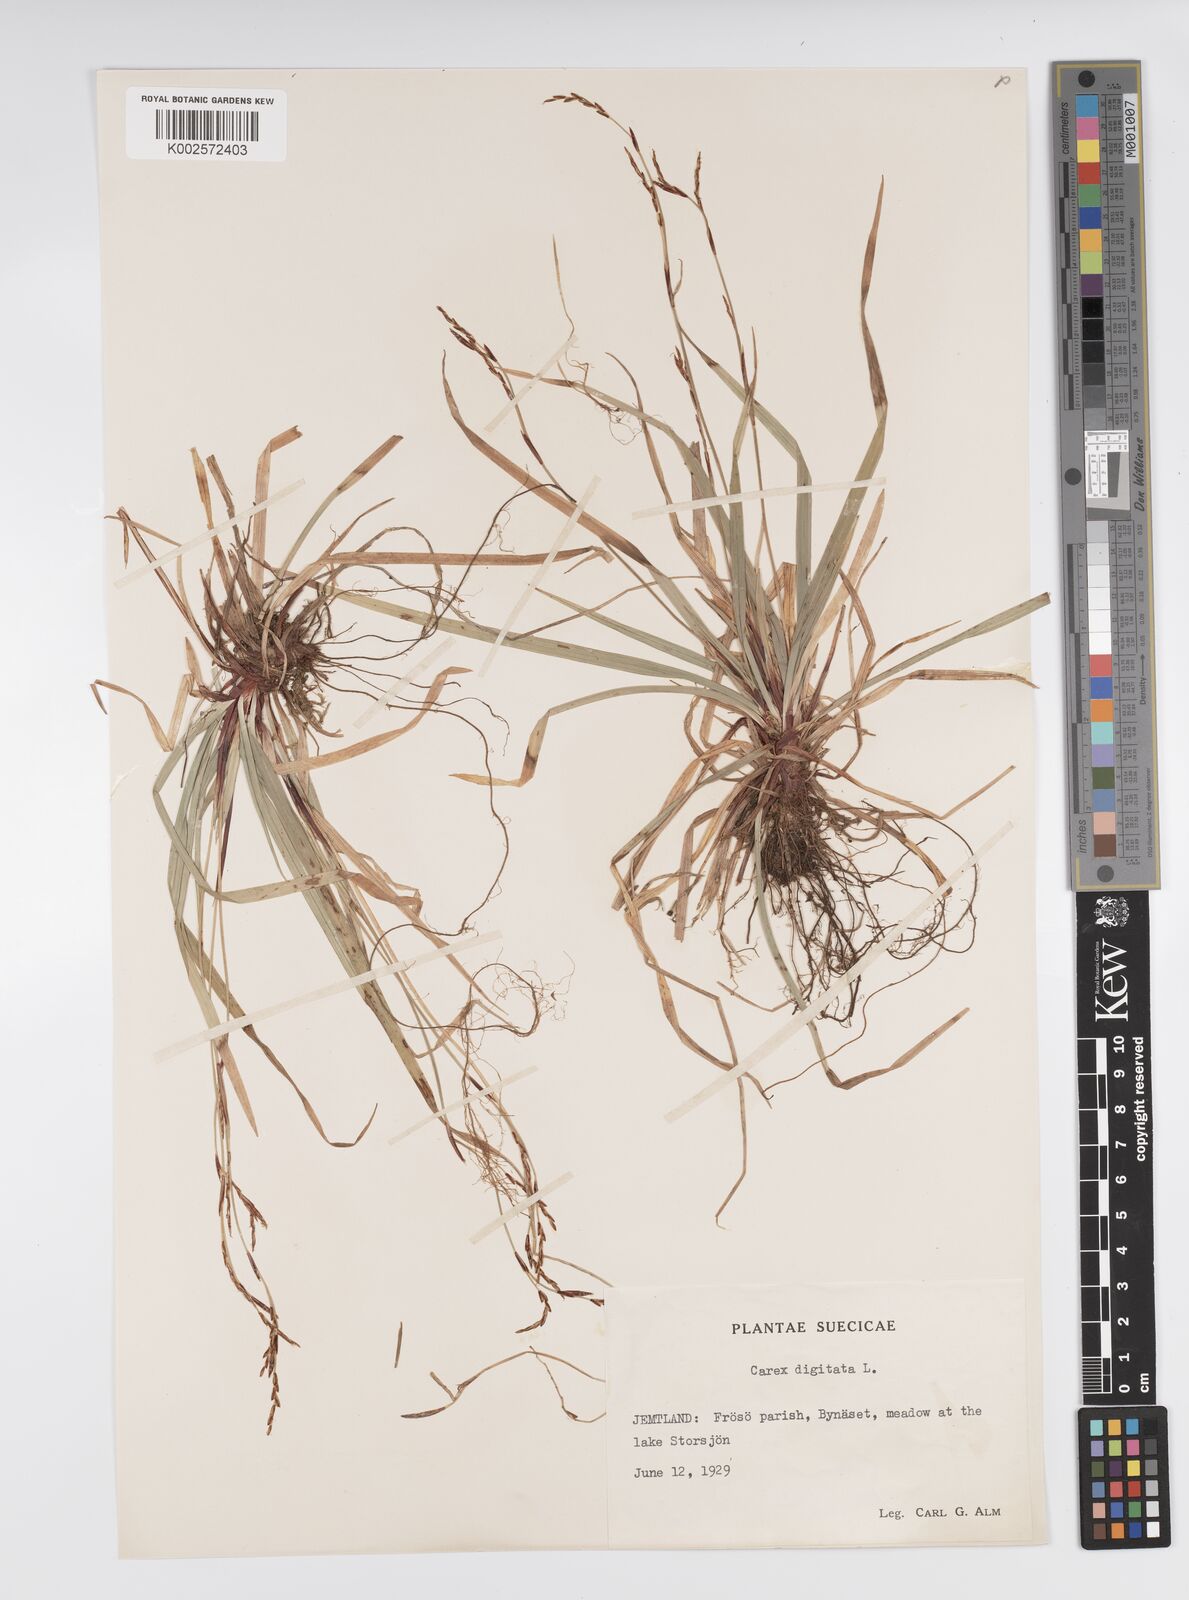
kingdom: Plantae
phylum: Tracheophyta
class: Liliopsida
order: Poales
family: Cyperaceae
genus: Carex
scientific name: Carex digitata
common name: Fingered sedge
